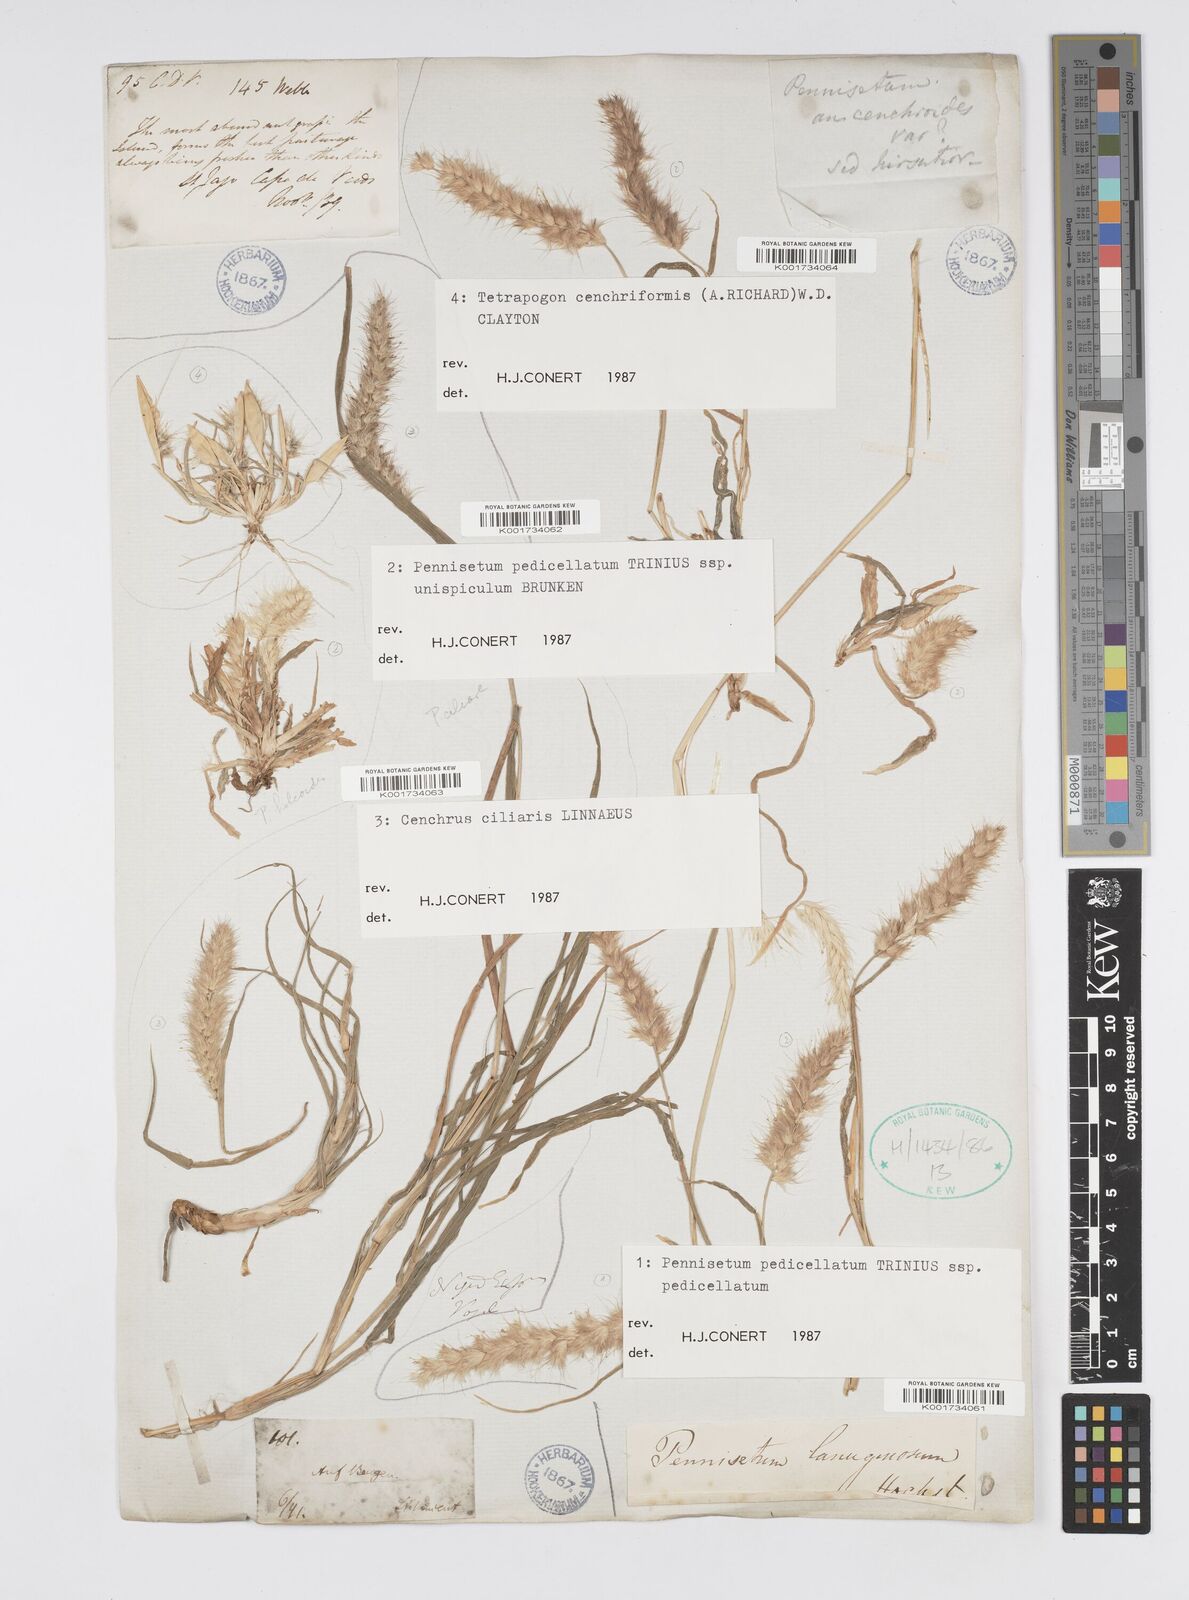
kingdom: Plantae
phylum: Tracheophyta
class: Liliopsida
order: Poales
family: Poaceae
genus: Cenchrus
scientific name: Cenchrus pedicellatus
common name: Hairy fountain grass
